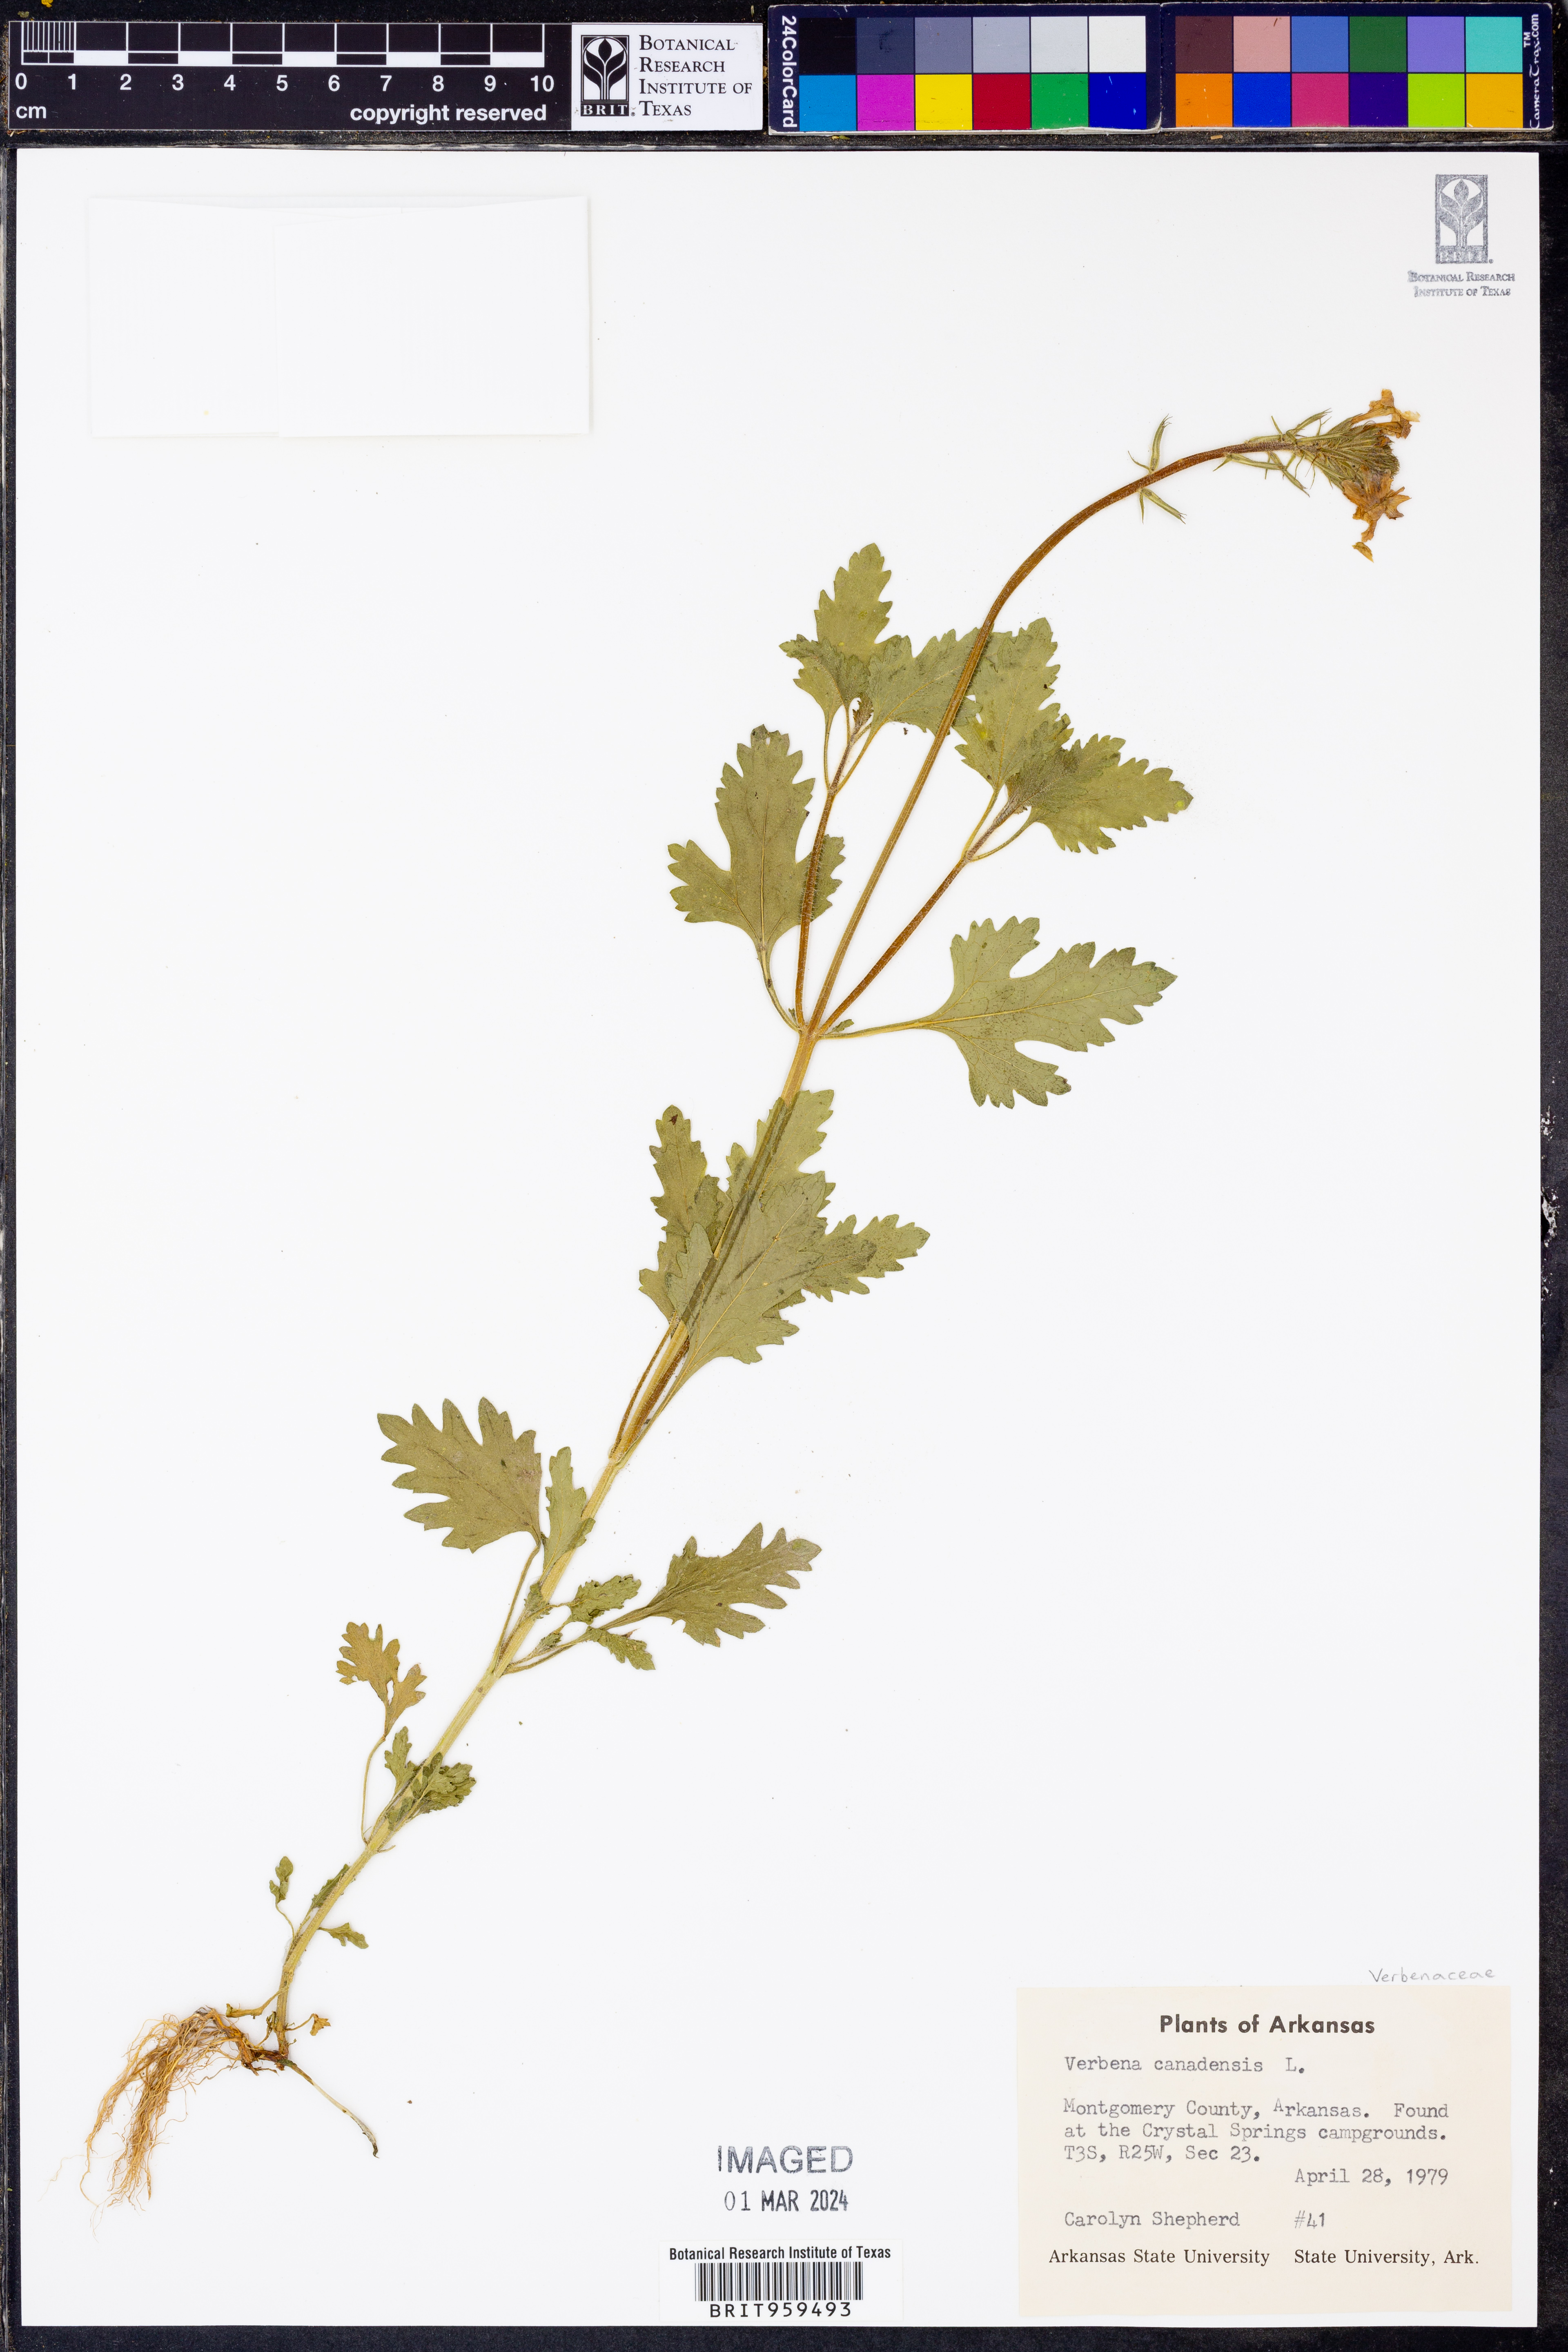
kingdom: Plantae
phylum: Tracheophyta
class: Magnoliopsida
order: Lamiales
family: Verbenaceae
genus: Verbena
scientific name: Verbena canadensis
